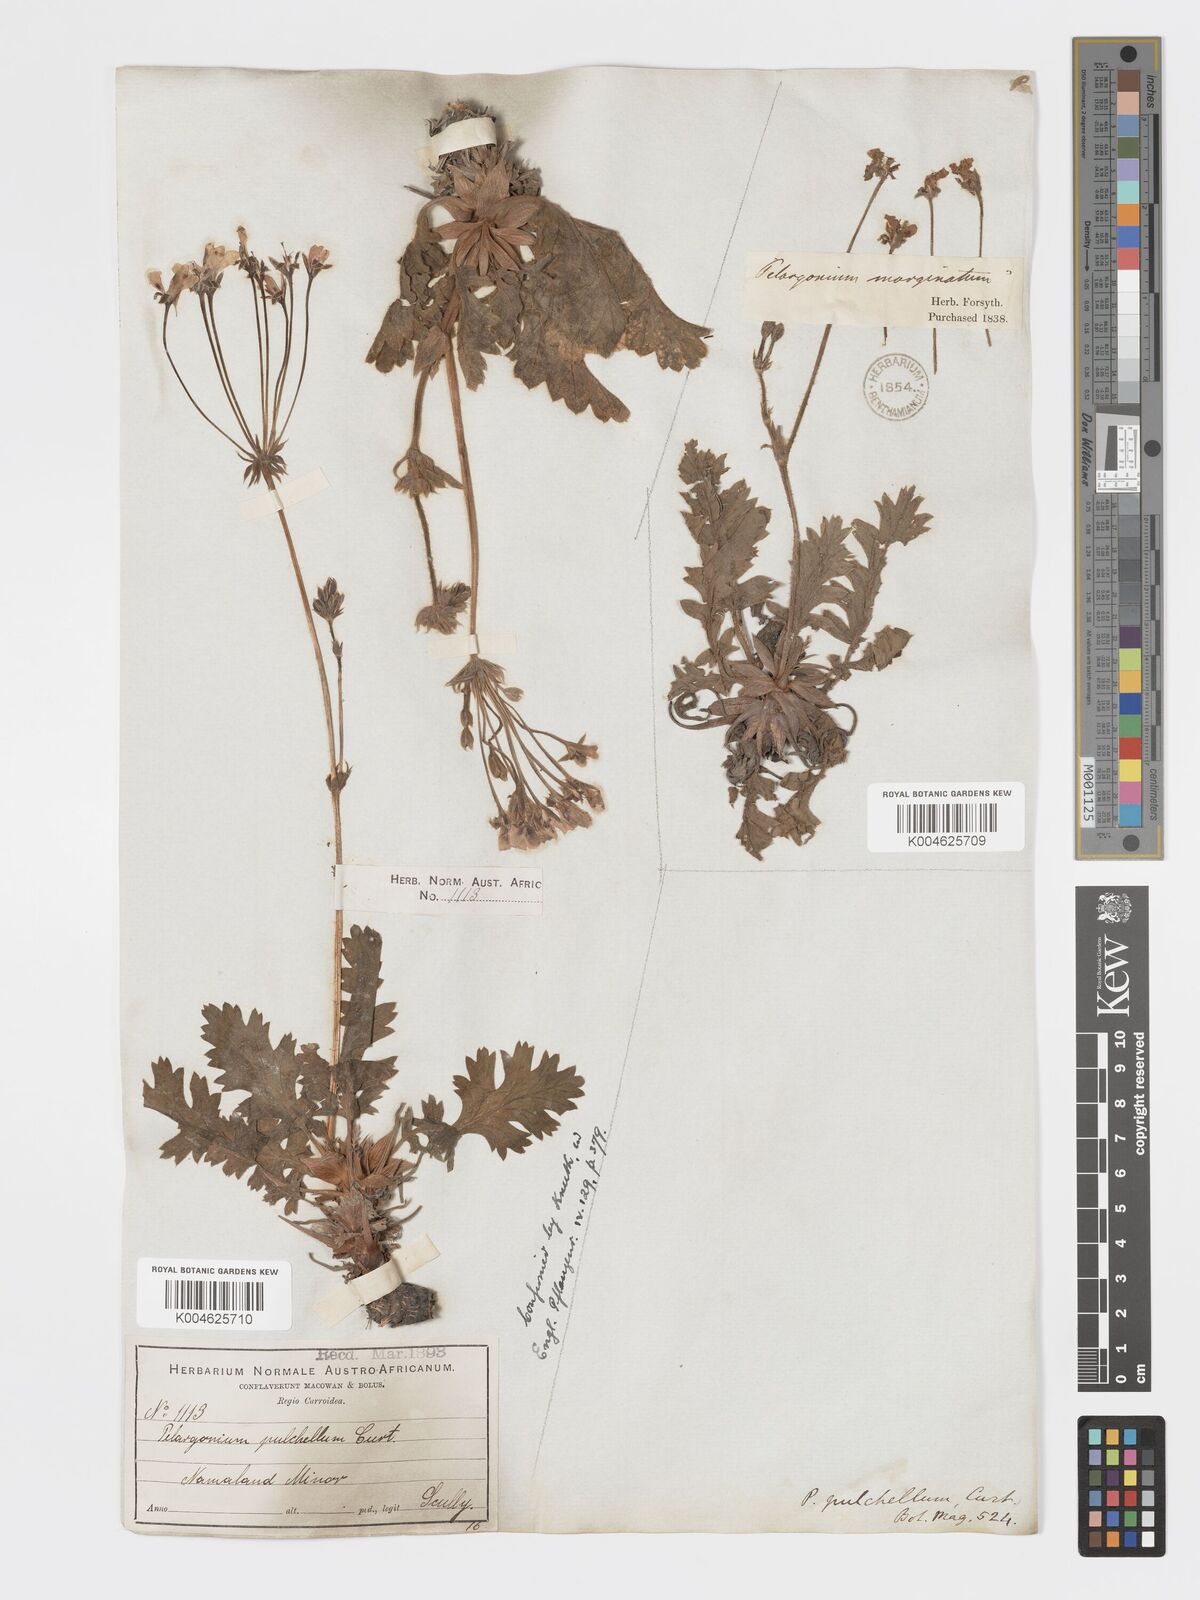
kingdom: Plantae
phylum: Tracheophyta
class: Magnoliopsida
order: Geraniales
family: Geraniaceae
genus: Pelargonium
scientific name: Pelargonium
